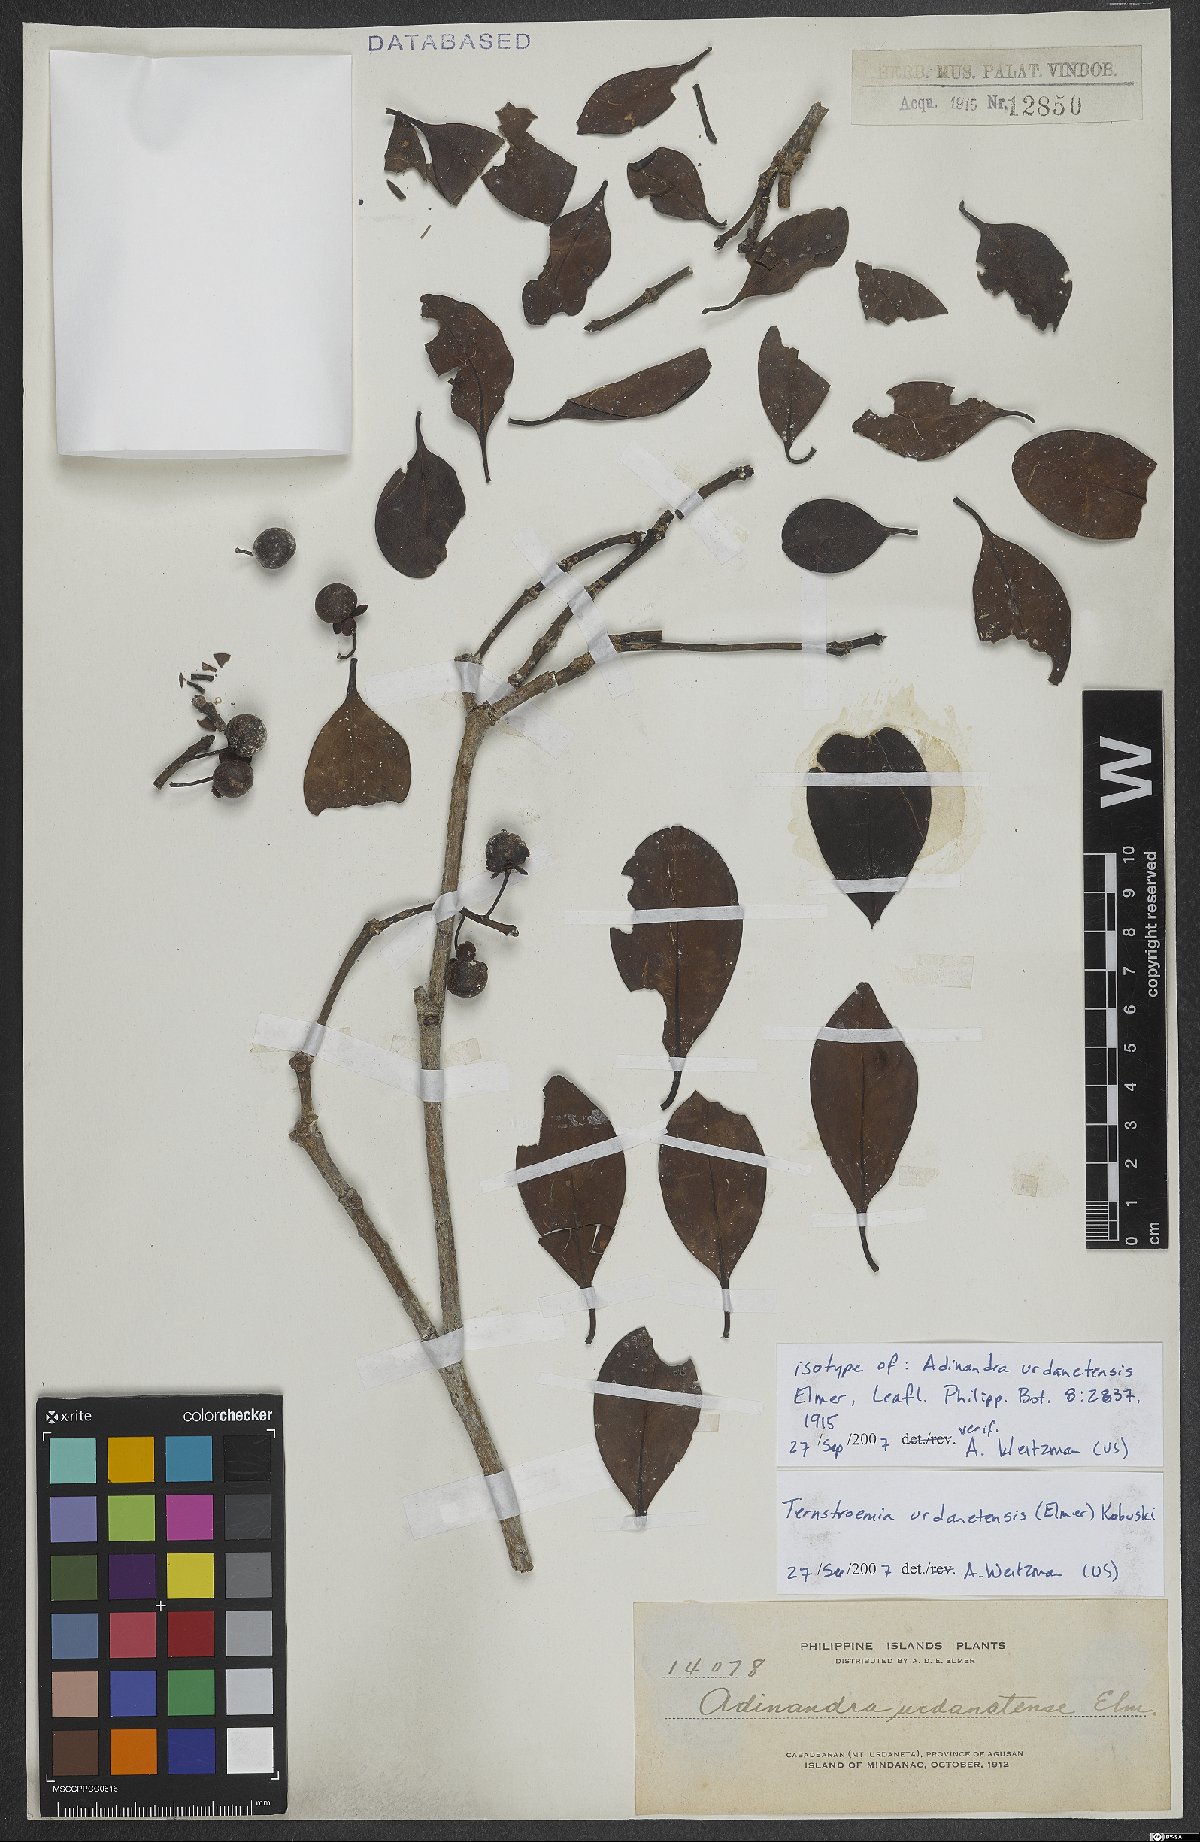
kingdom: Plantae
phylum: Tracheophyta
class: Magnoliopsida
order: Ericales
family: Pentaphylacaceae
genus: Ternstroemia
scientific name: Ternstroemia urdanetensis
